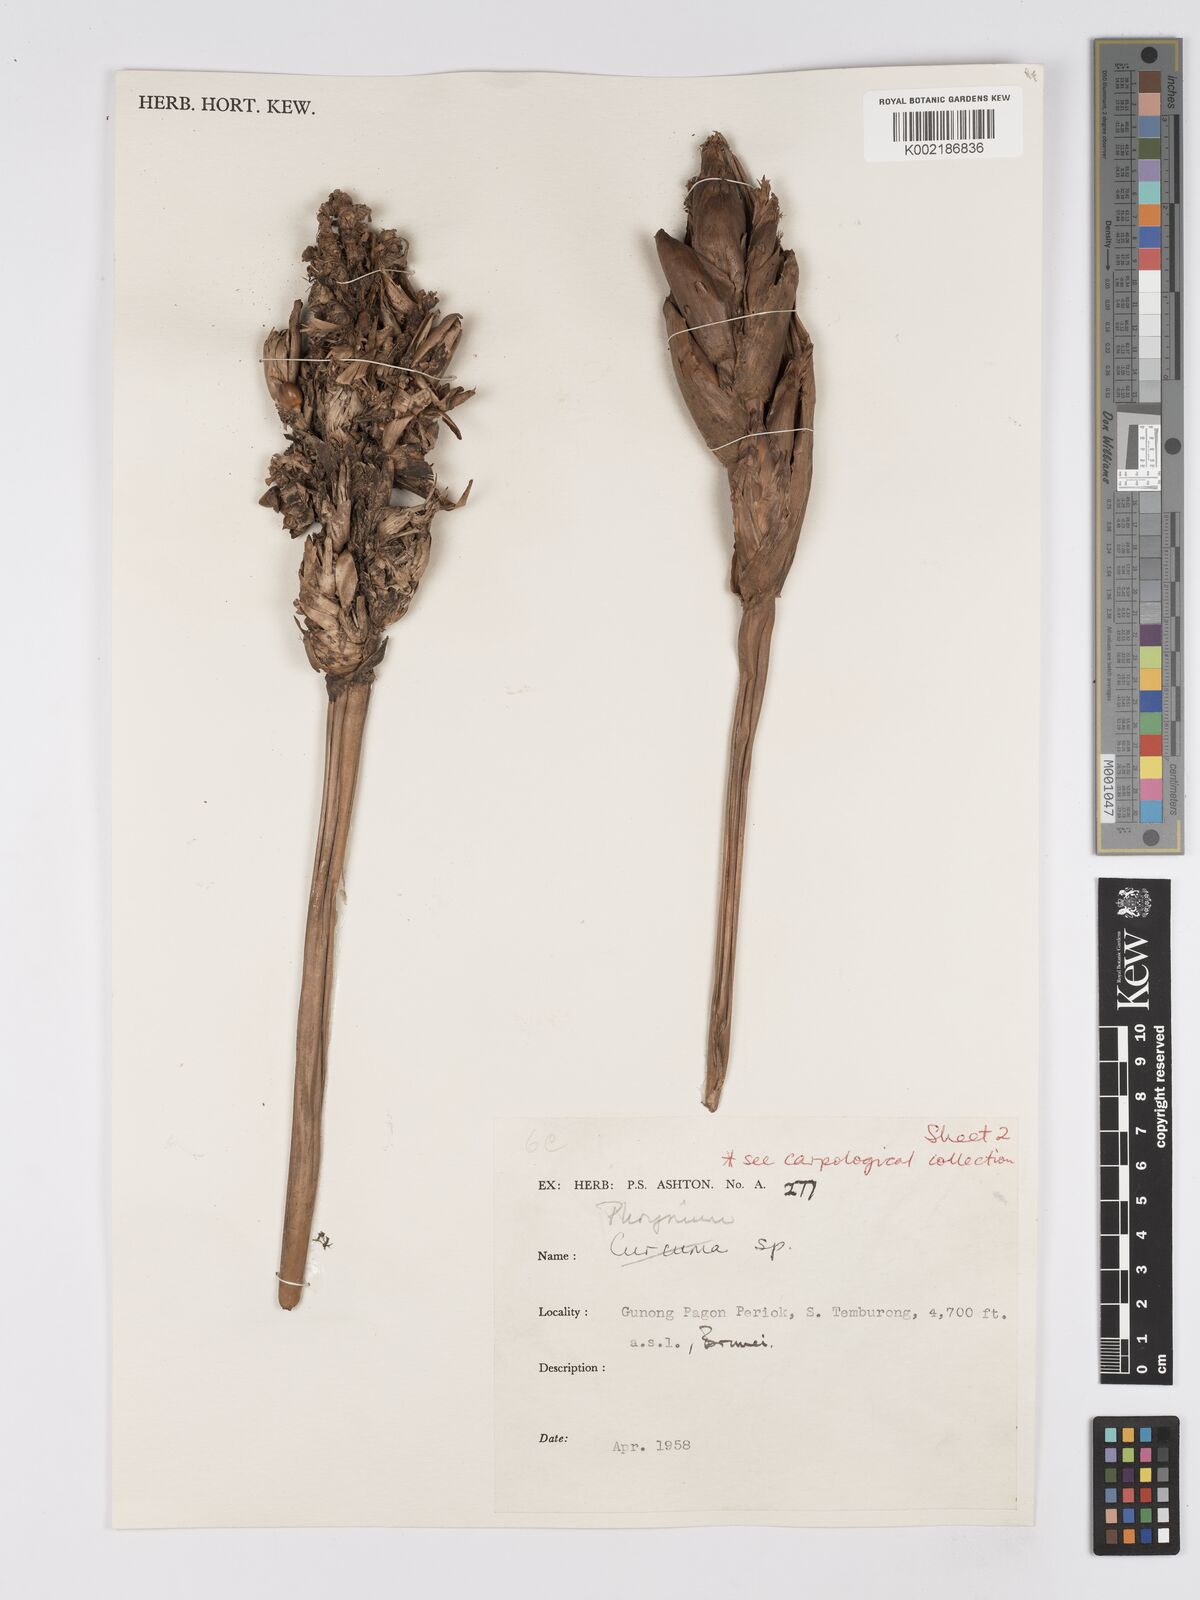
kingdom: Plantae
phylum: Tracheophyta
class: Liliopsida
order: Zingiberales
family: Marantaceae
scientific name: Marantaceae
